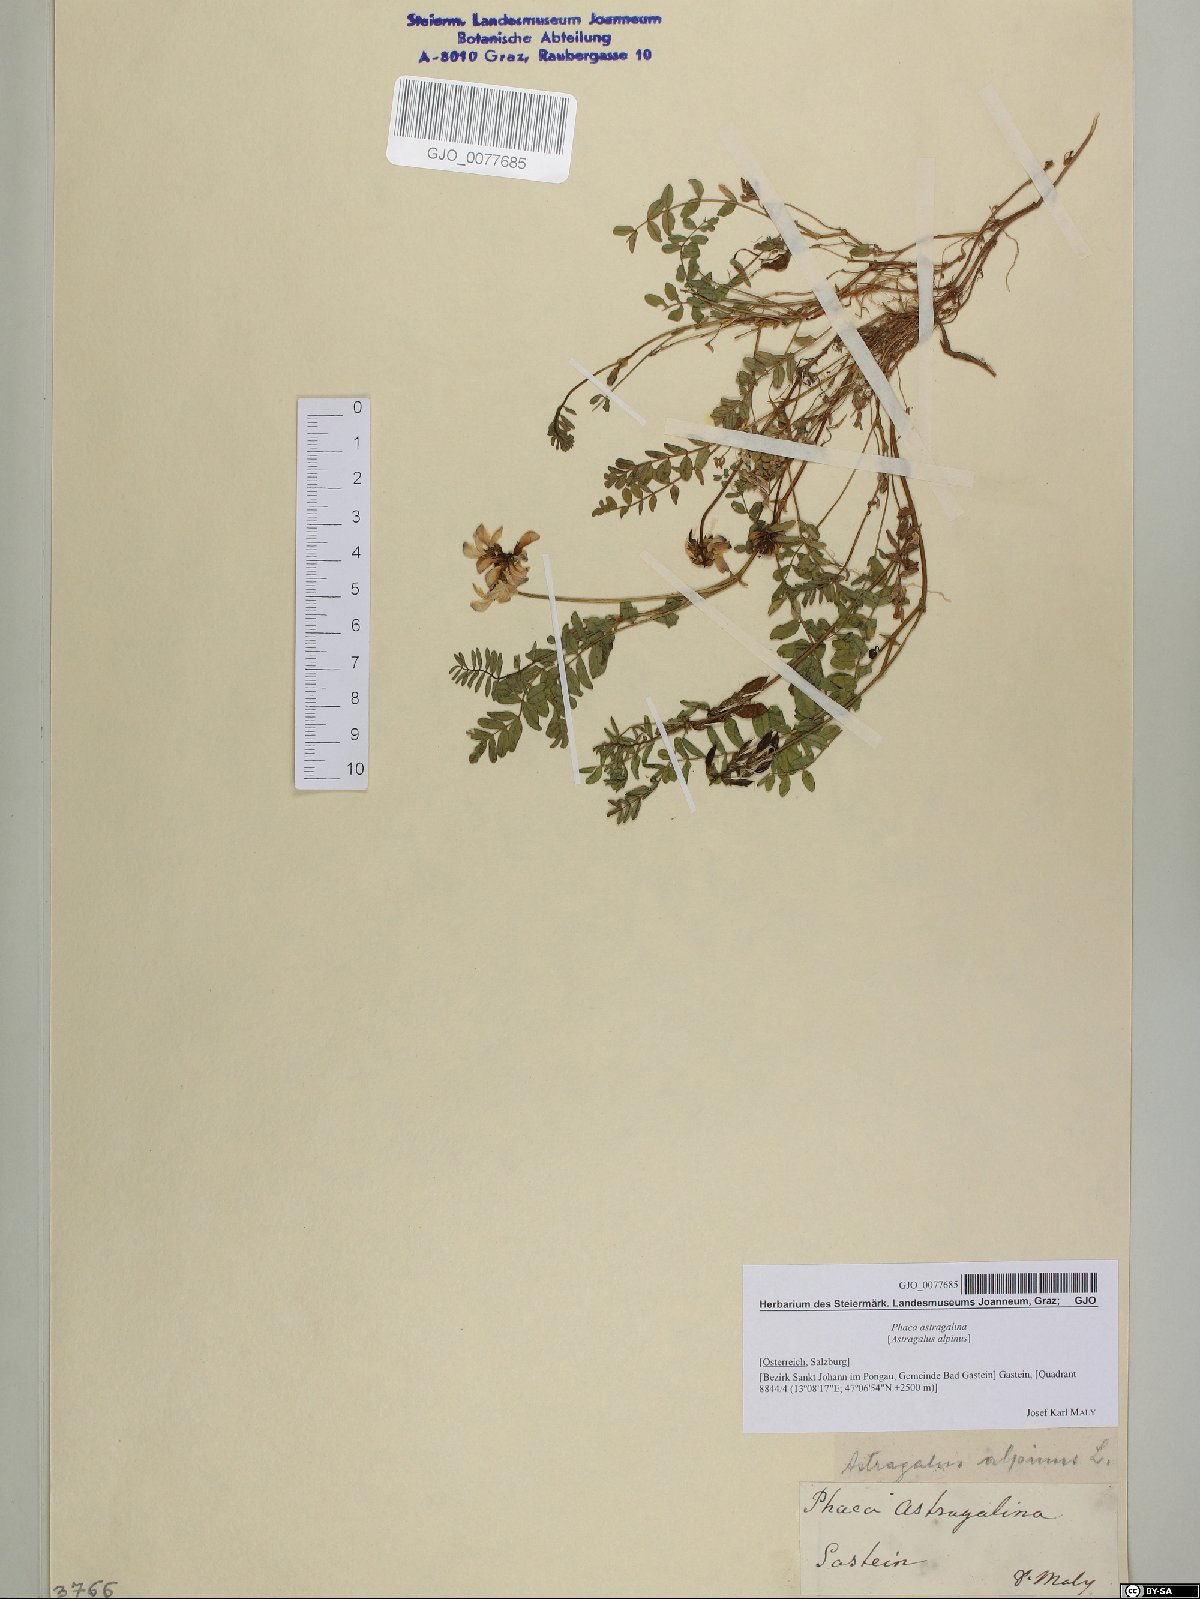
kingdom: Plantae
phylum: Tracheophyta
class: Magnoliopsida
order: Fabales
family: Fabaceae
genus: Astragalus
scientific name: Astragalus alpinus
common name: Alpine milk-vetch
